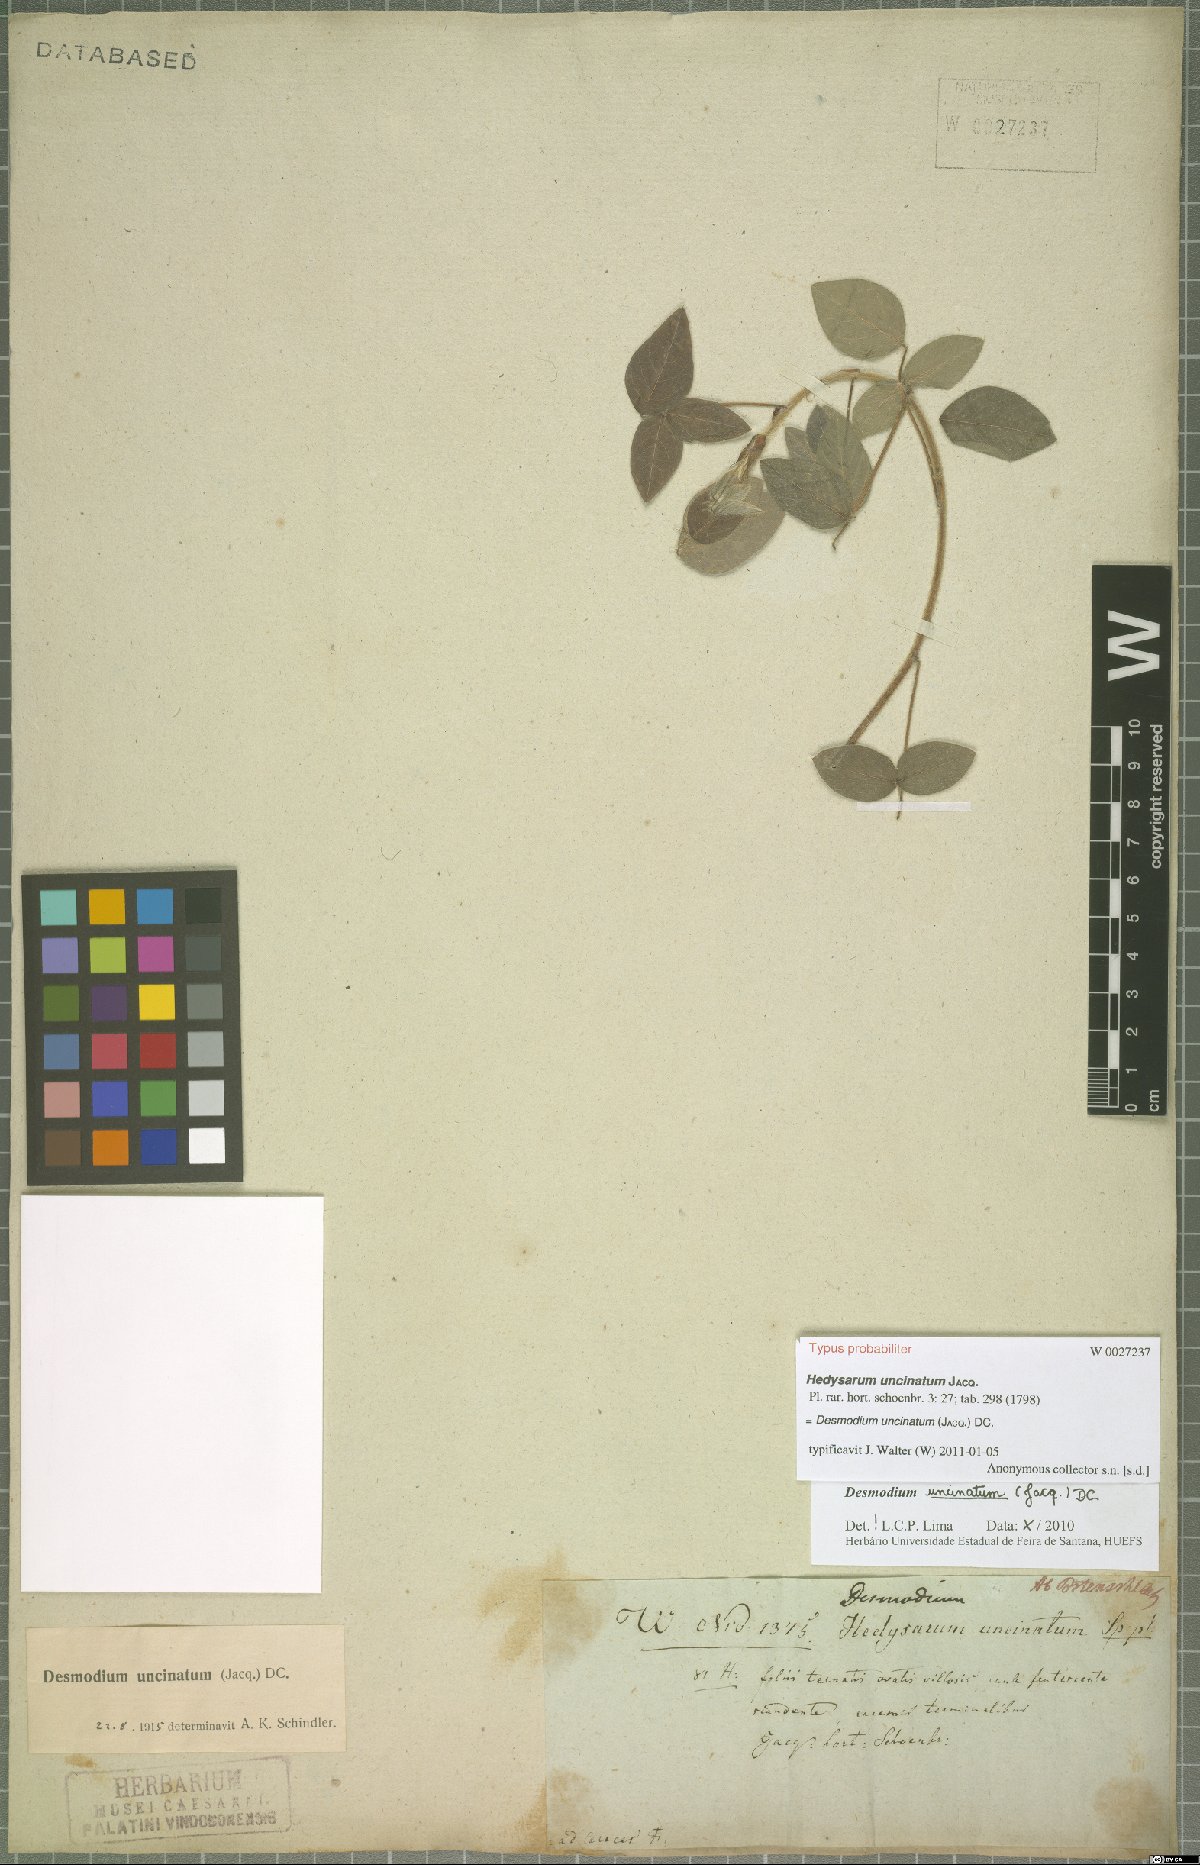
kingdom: Plantae
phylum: Tracheophyta
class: Magnoliopsida
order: Fabales
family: Fabaceae
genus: Desmodium
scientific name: Desmodium uncinatum
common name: Silverleaf desmodium
